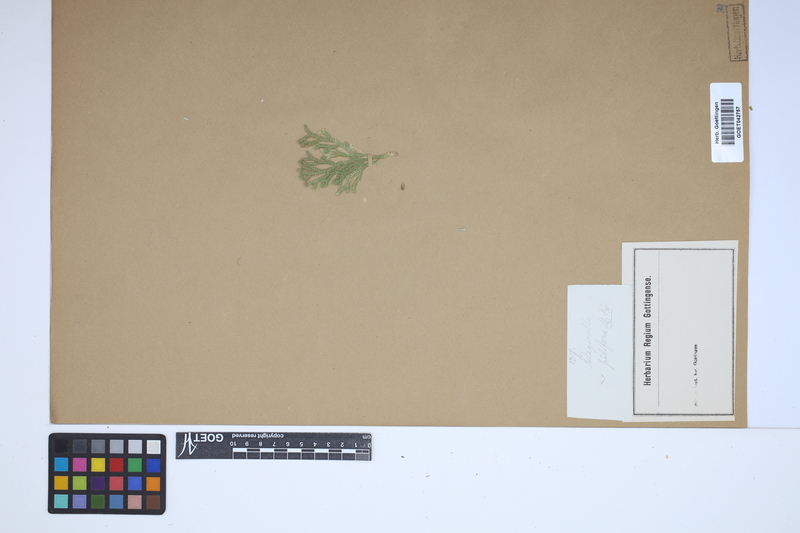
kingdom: Plantae
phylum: Tracheophyta
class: Lycopodiopsida
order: Selaginellales
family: Selaginellaceae
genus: Selaginella
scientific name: Selaginella pilifera
